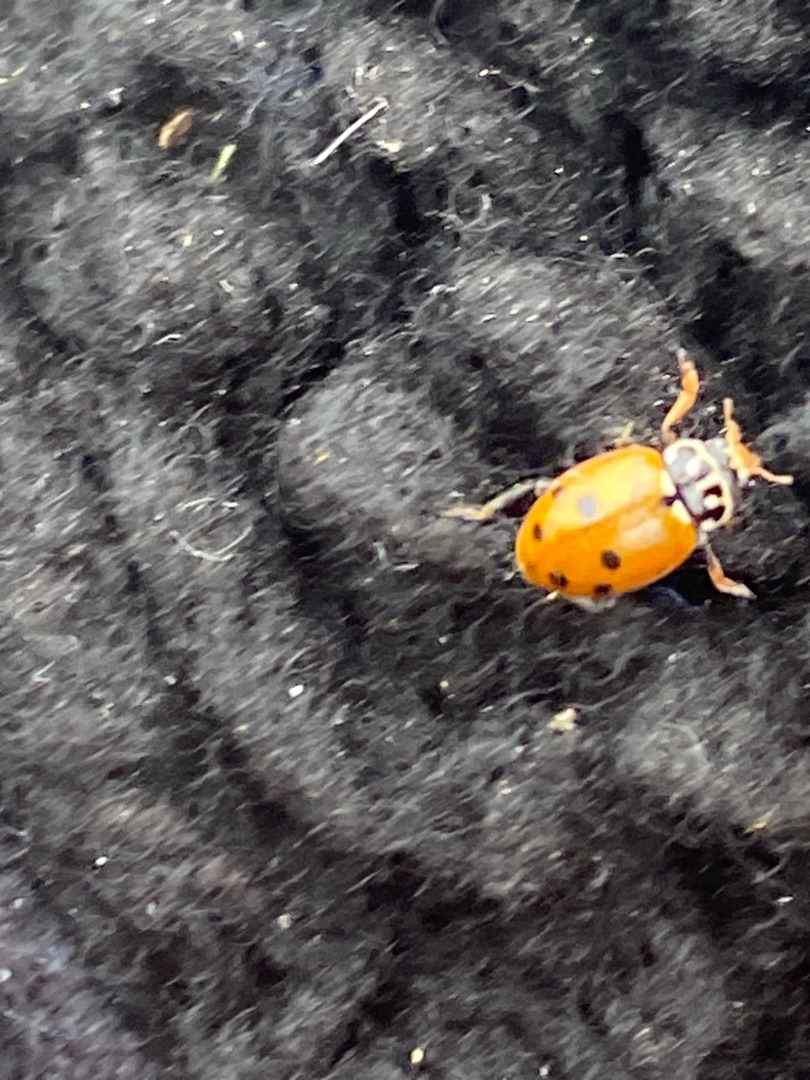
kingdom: Animalia
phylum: Arthropoda
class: Insecta
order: Coleoptera
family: Coccinellidae
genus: Hippodamia
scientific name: Hippodamia variegata
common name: Adonis' mariehøne
